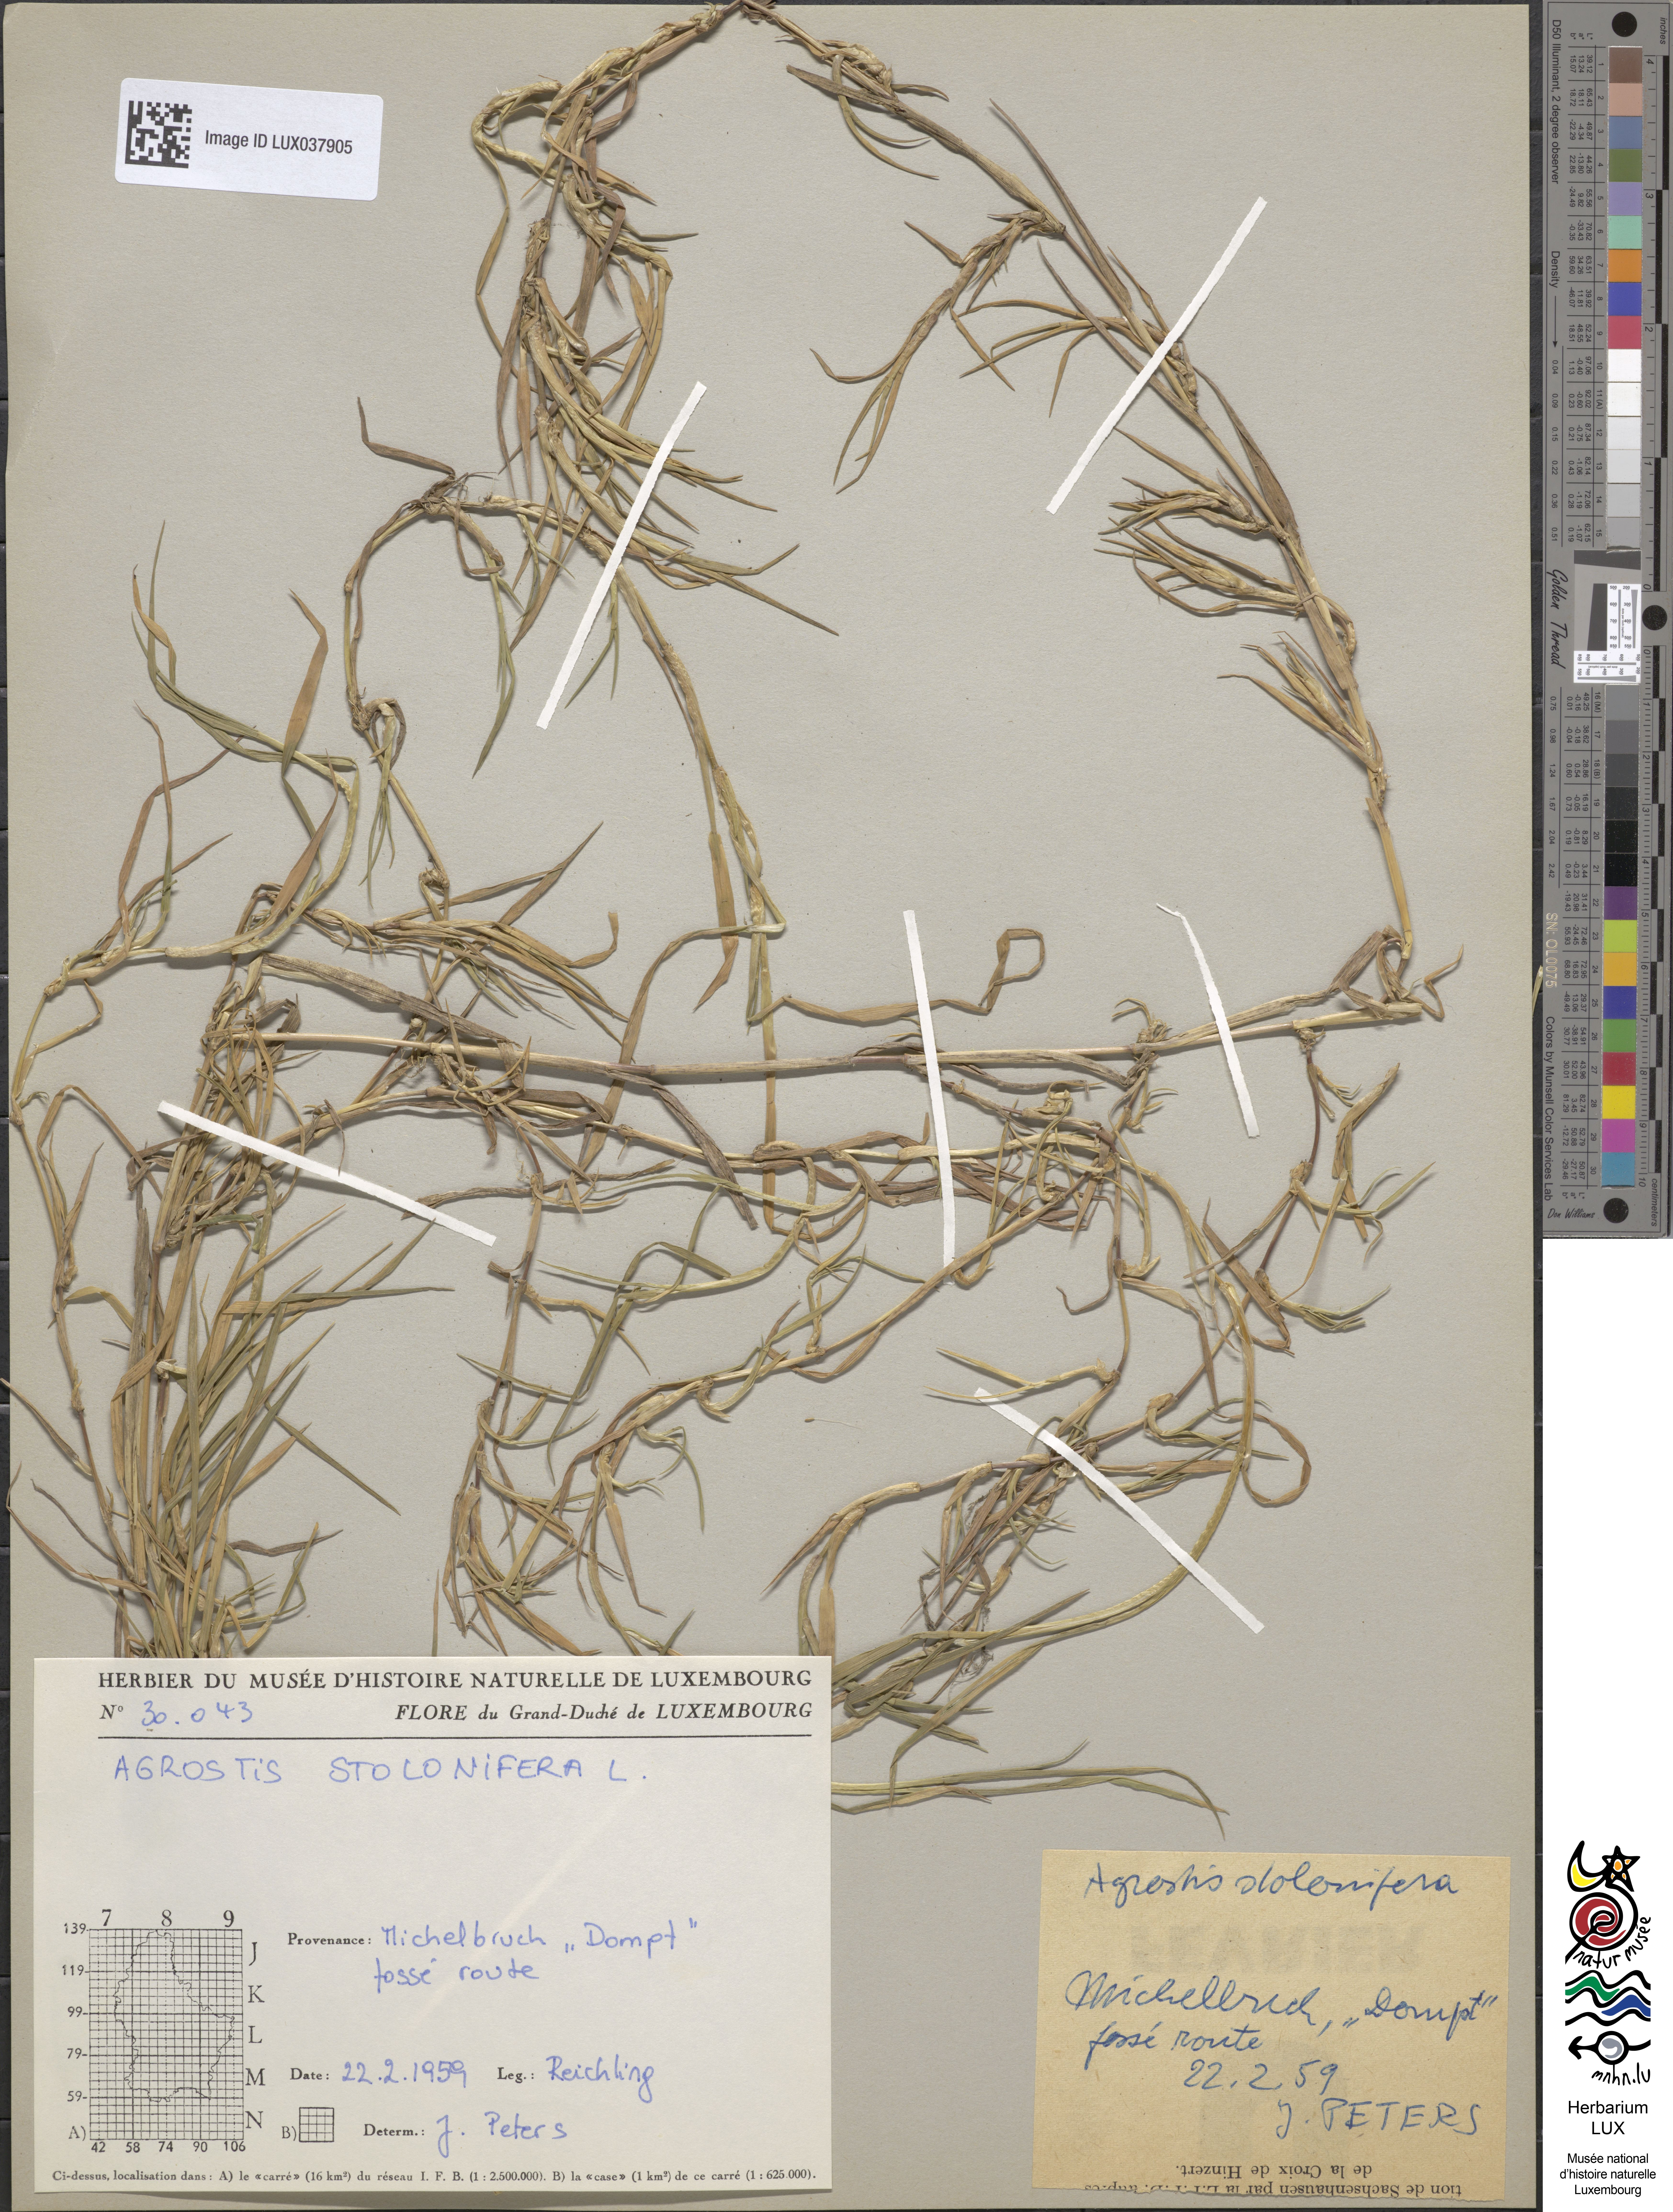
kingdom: Animalia
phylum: Arthropoda
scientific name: Arthropoda
